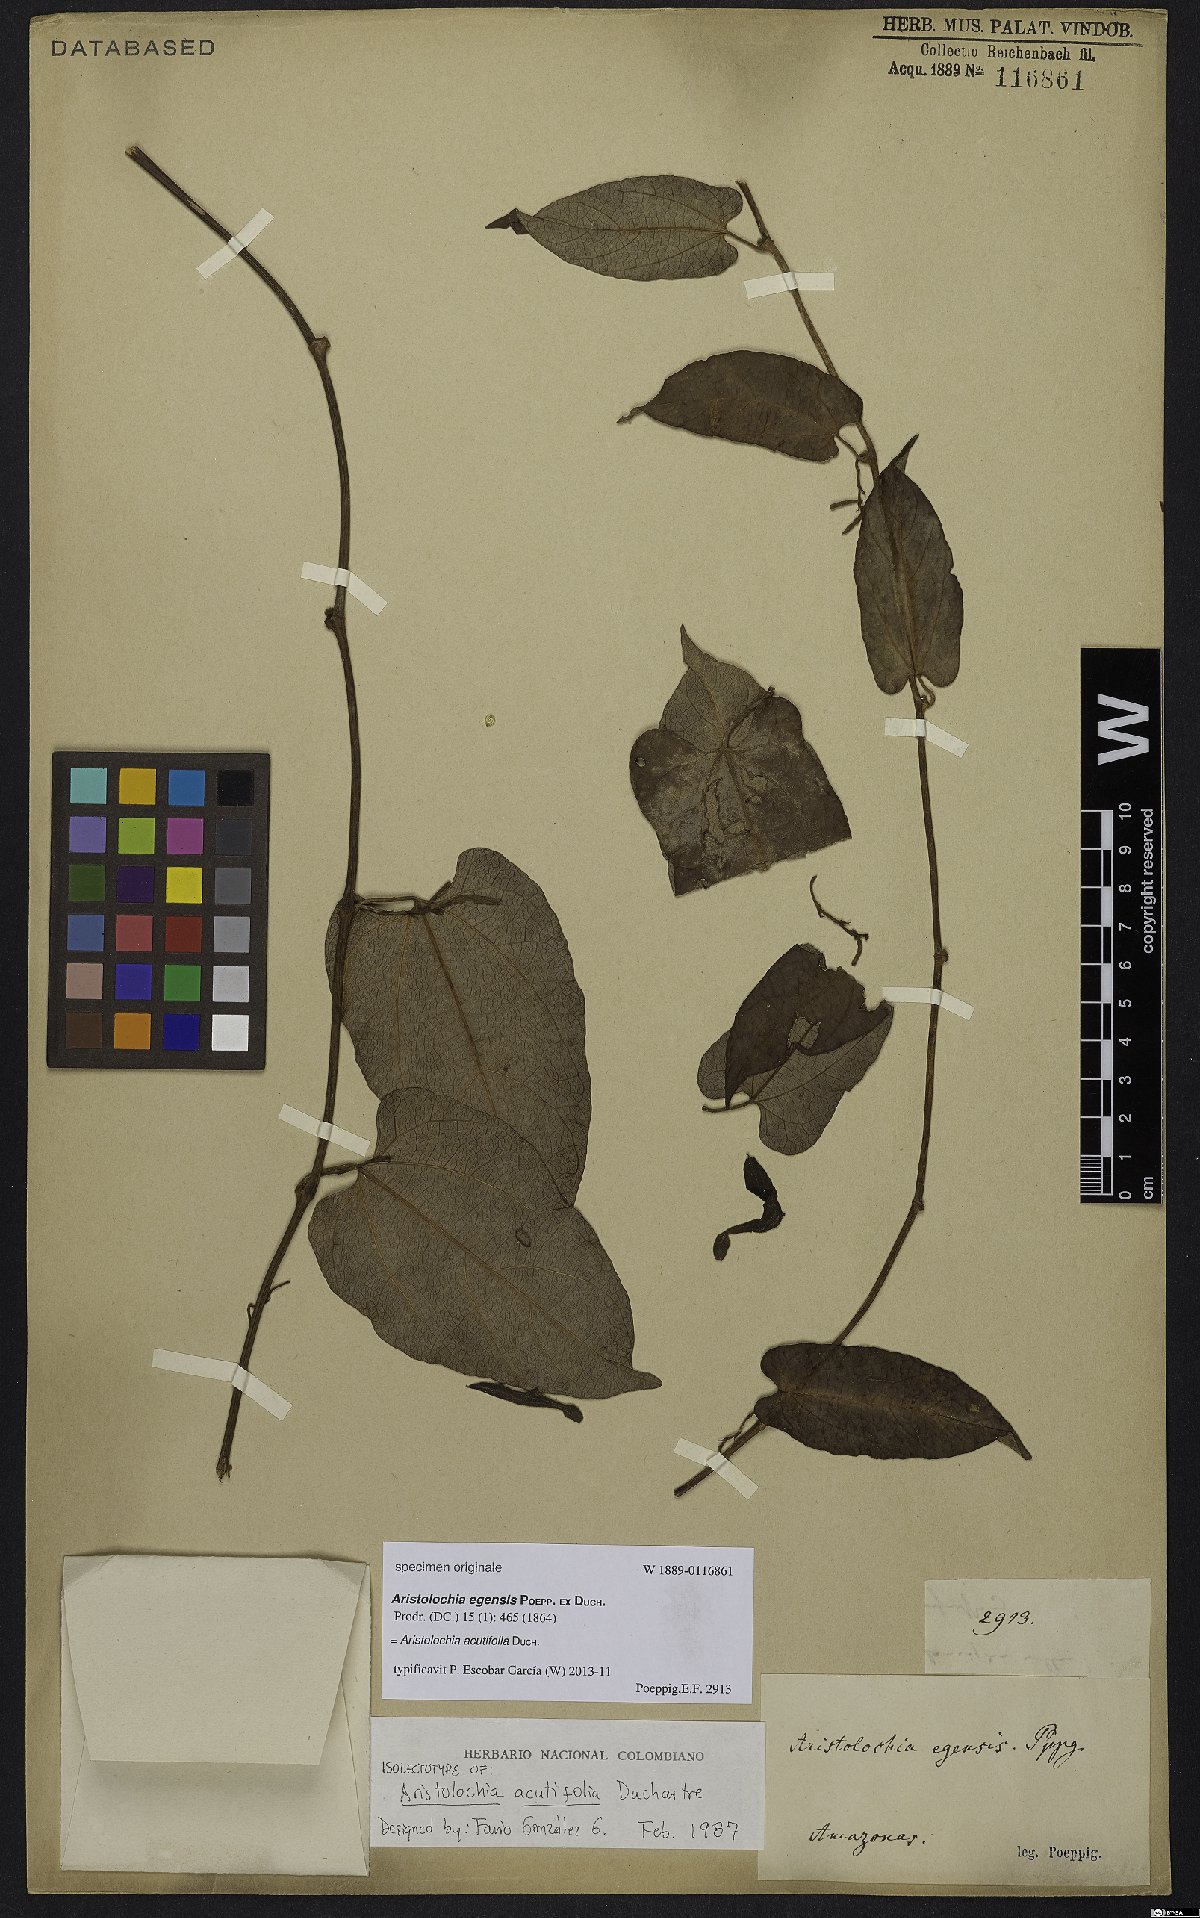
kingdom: Plantae
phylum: Tracheophyta
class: Magnoliopsida
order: Piperales
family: Aristolochiaceae
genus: Aristolochia
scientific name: Aristolochia acutifolia
